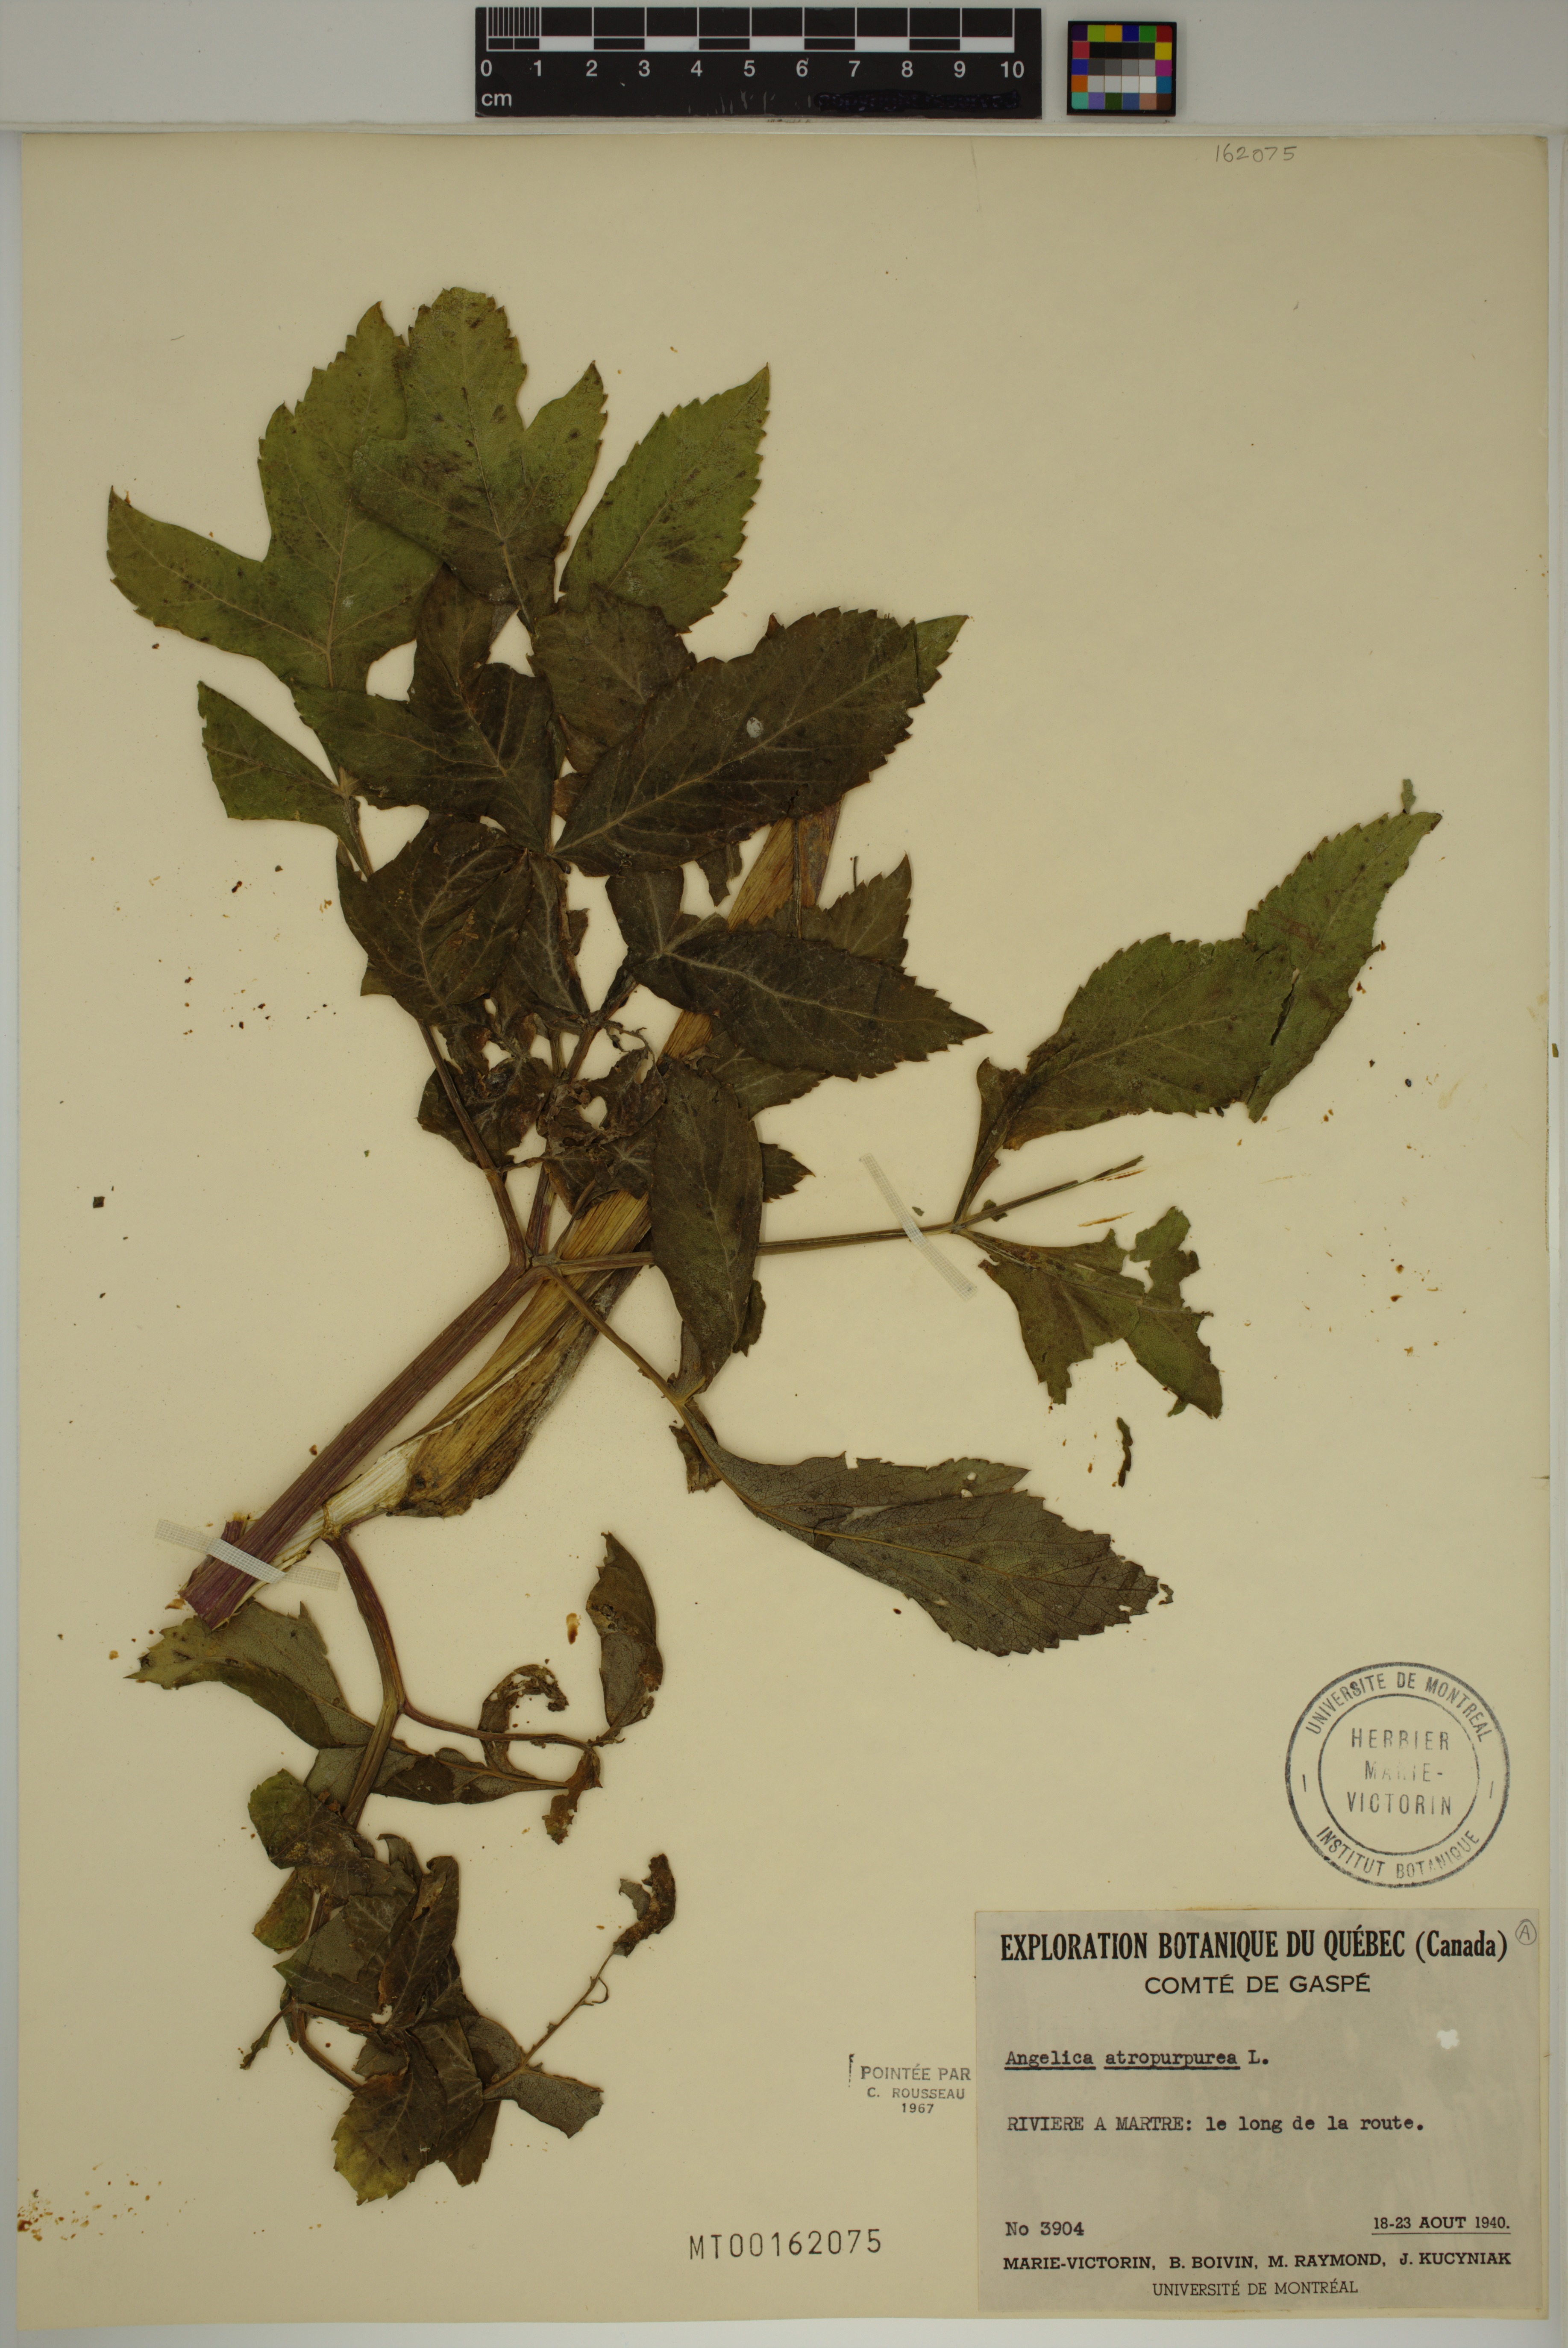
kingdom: Plantae
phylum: Tracheophyta
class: Magnoliopsida
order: Apiales
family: Apiaceae
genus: Angelica
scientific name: Angelica atropurpurea
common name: Great angelica
